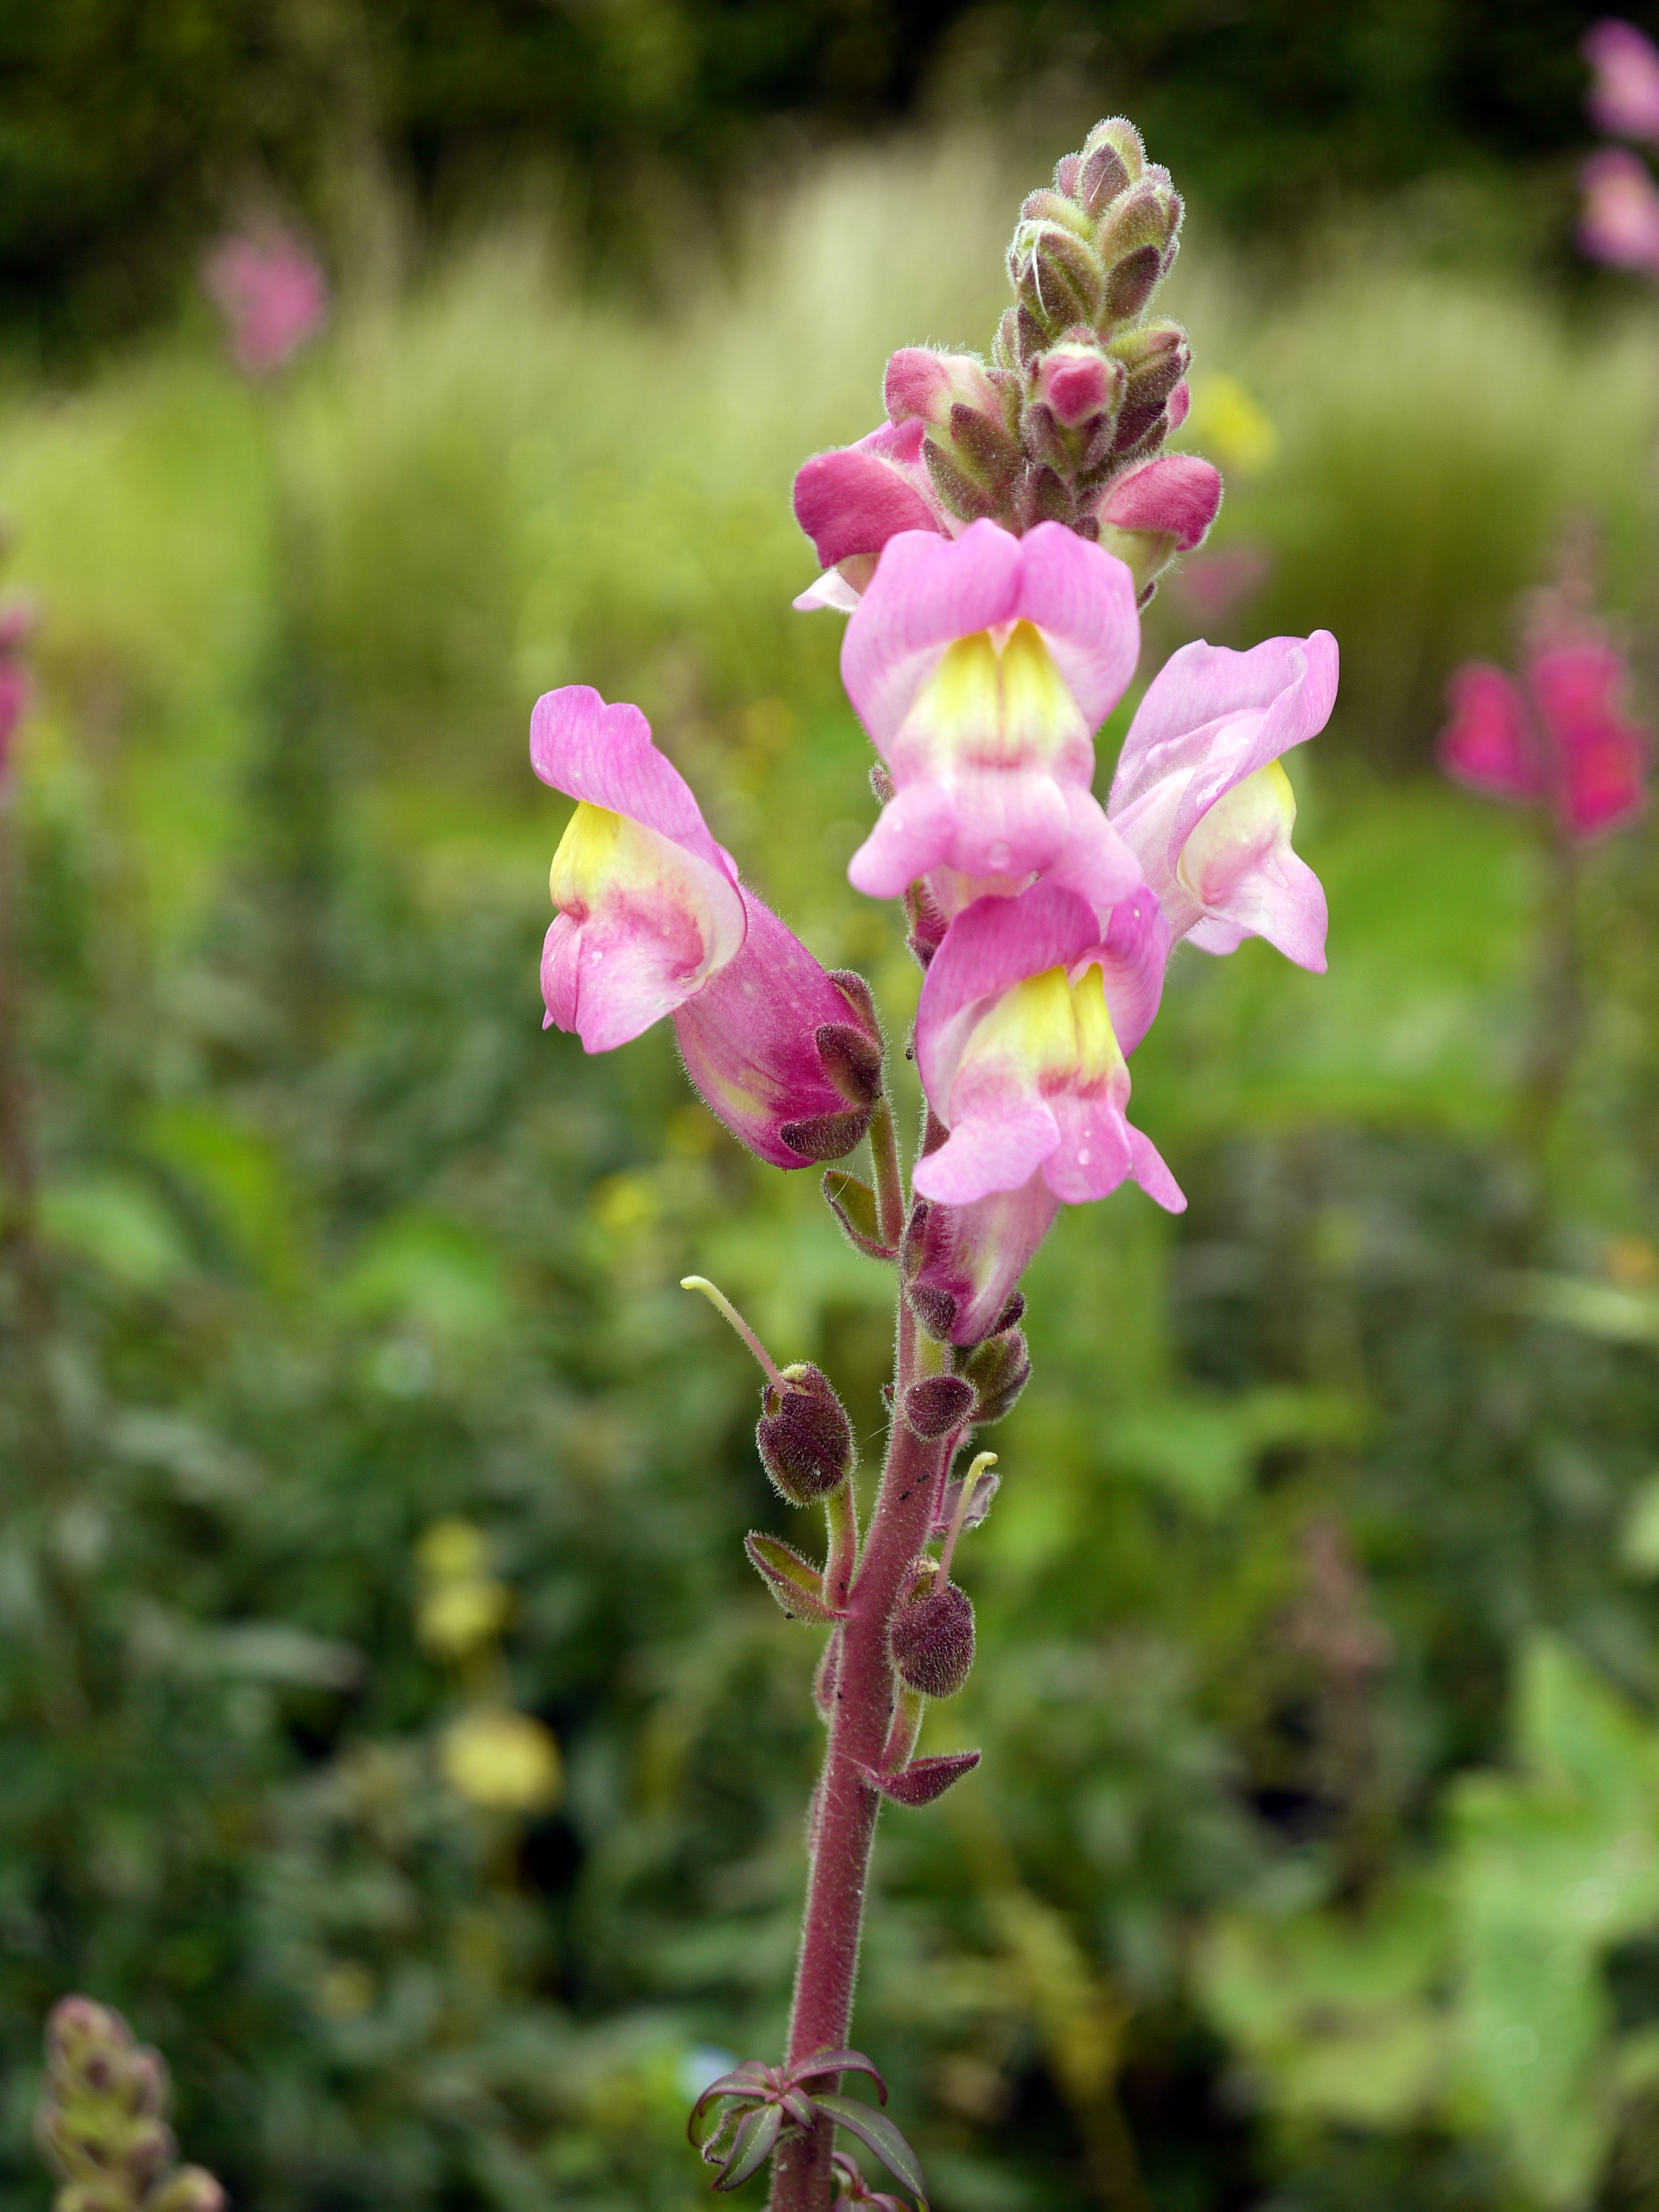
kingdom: Plantae
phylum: Tracheophyta
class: Magnoliopsida
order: Lamiales
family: Plantaginaceae
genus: Antirrhinum
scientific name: Antirrhinum majus
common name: Snapdragon
